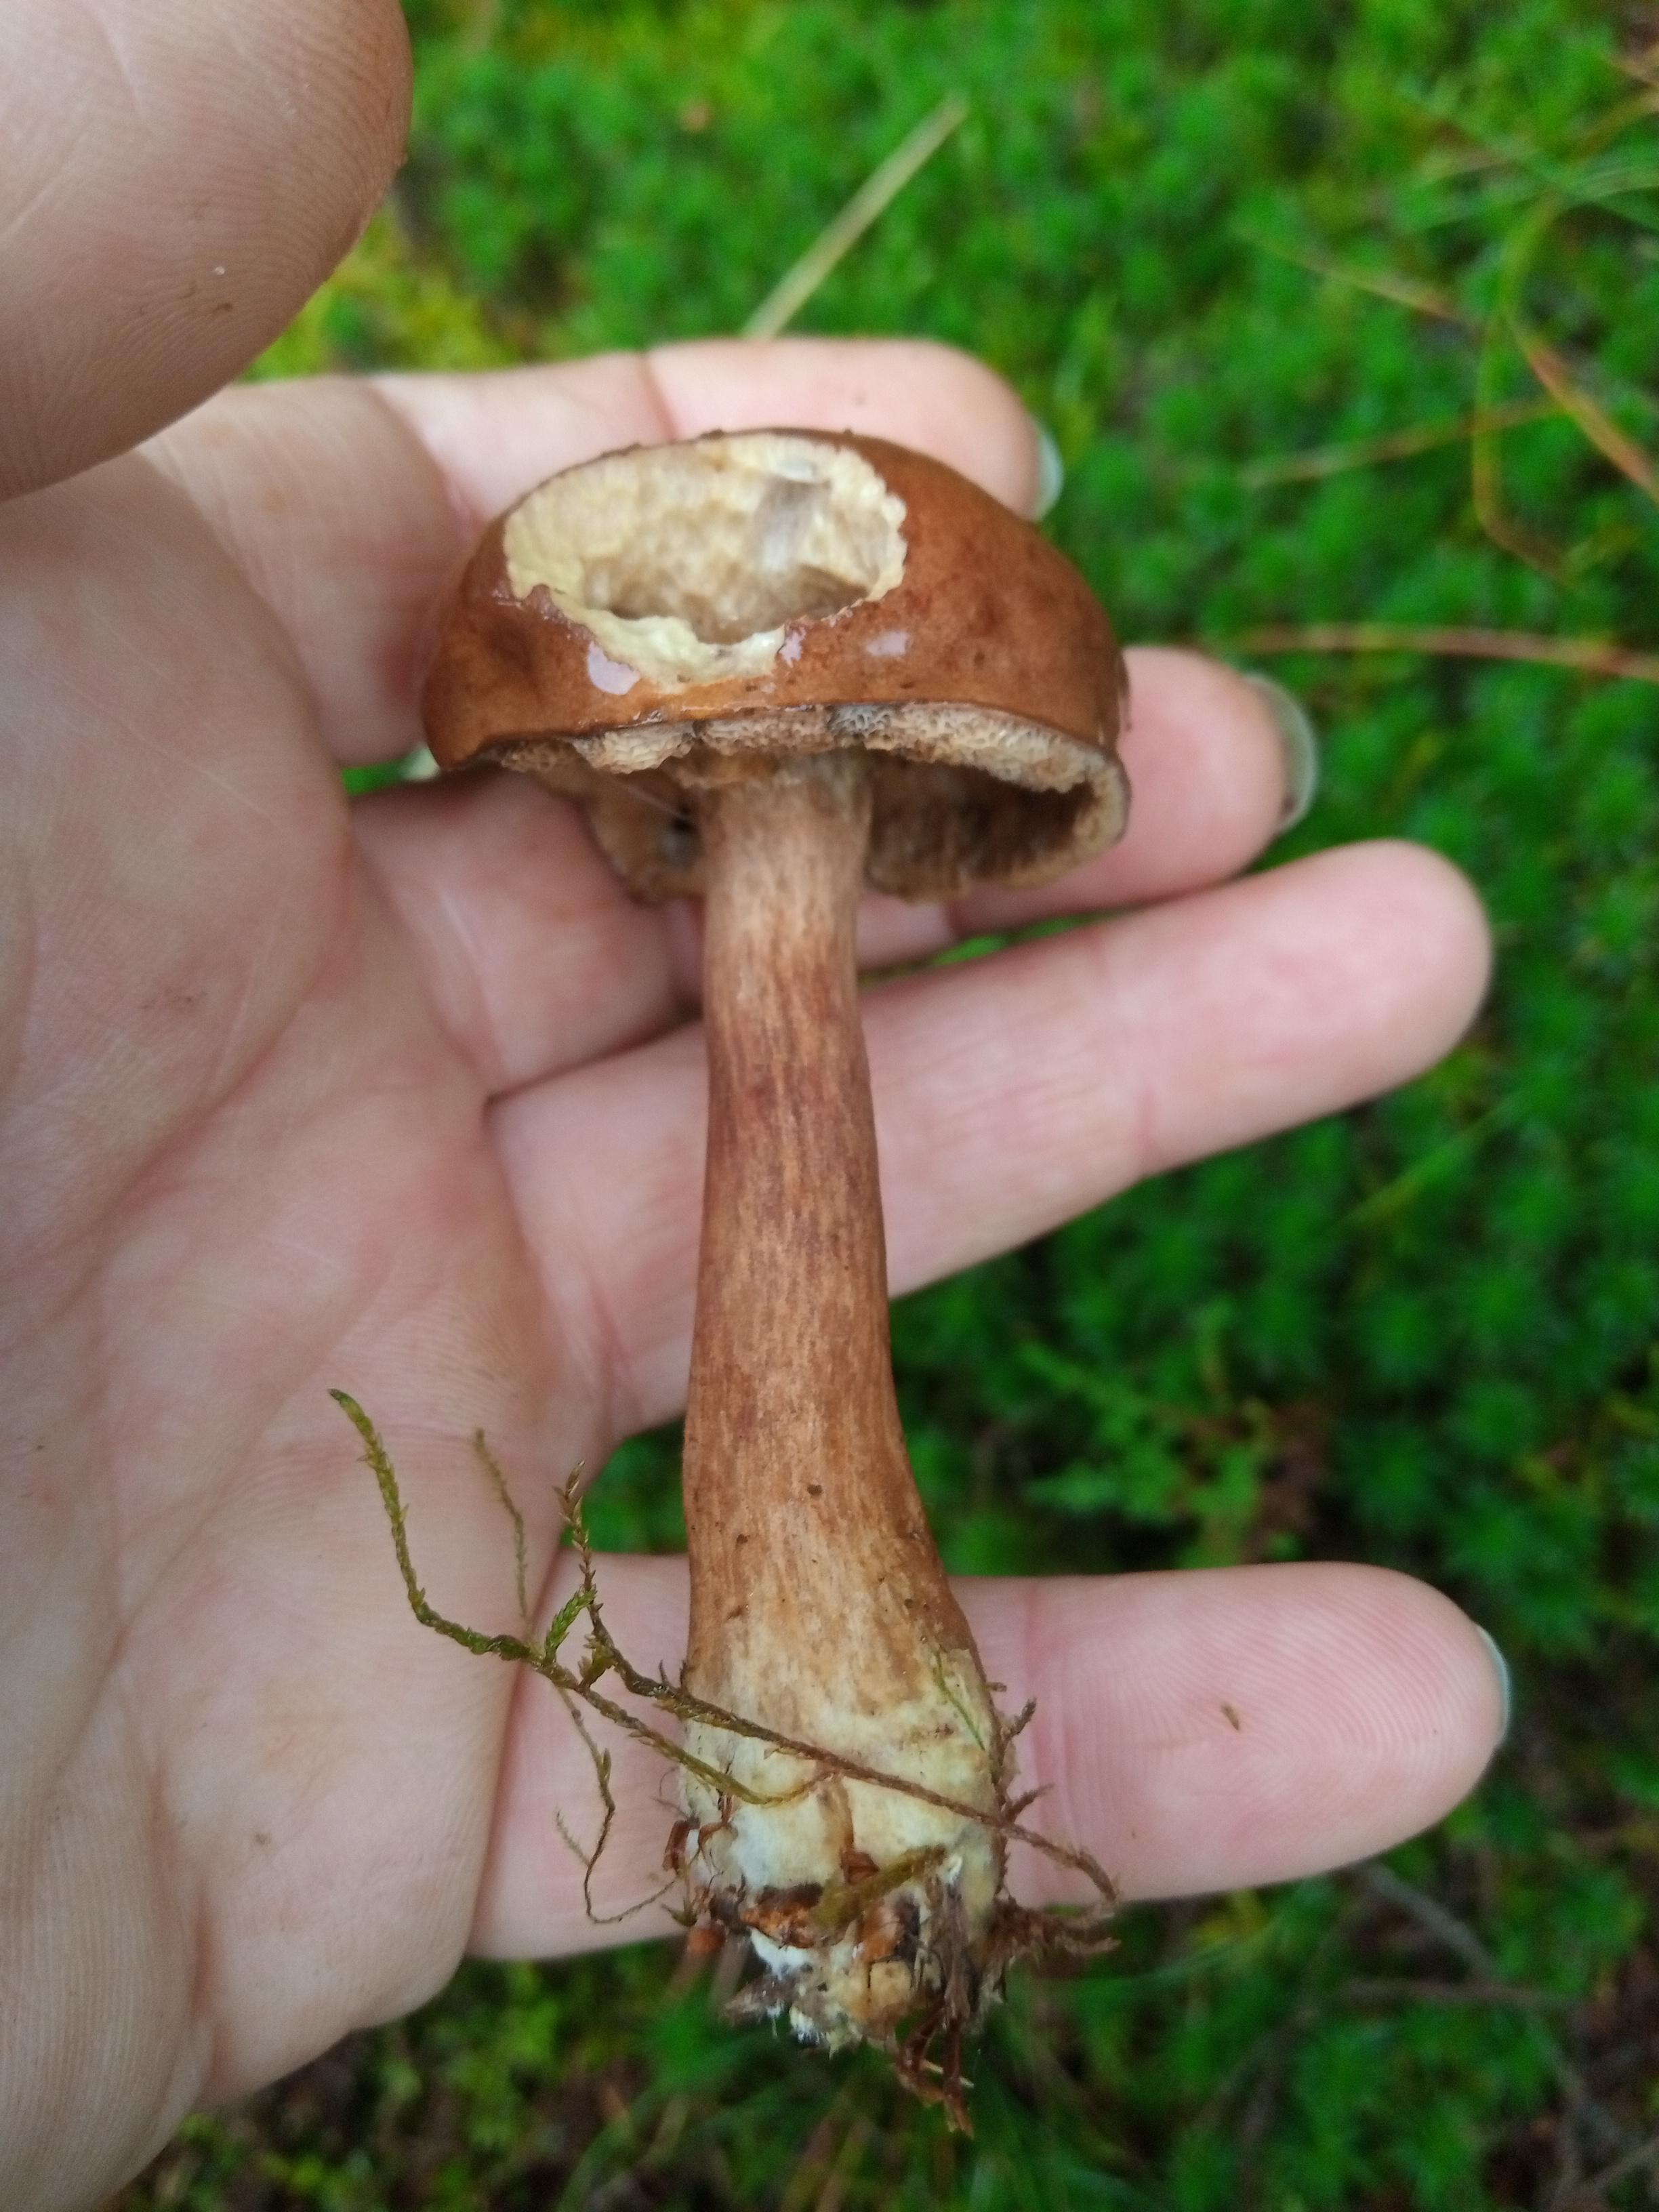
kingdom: Fungi
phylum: Basidiomycota
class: Agaricomycetes
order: Boletales
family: Boletaceae
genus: Imleria
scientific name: Imleria badia
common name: brunstokket rørhat
